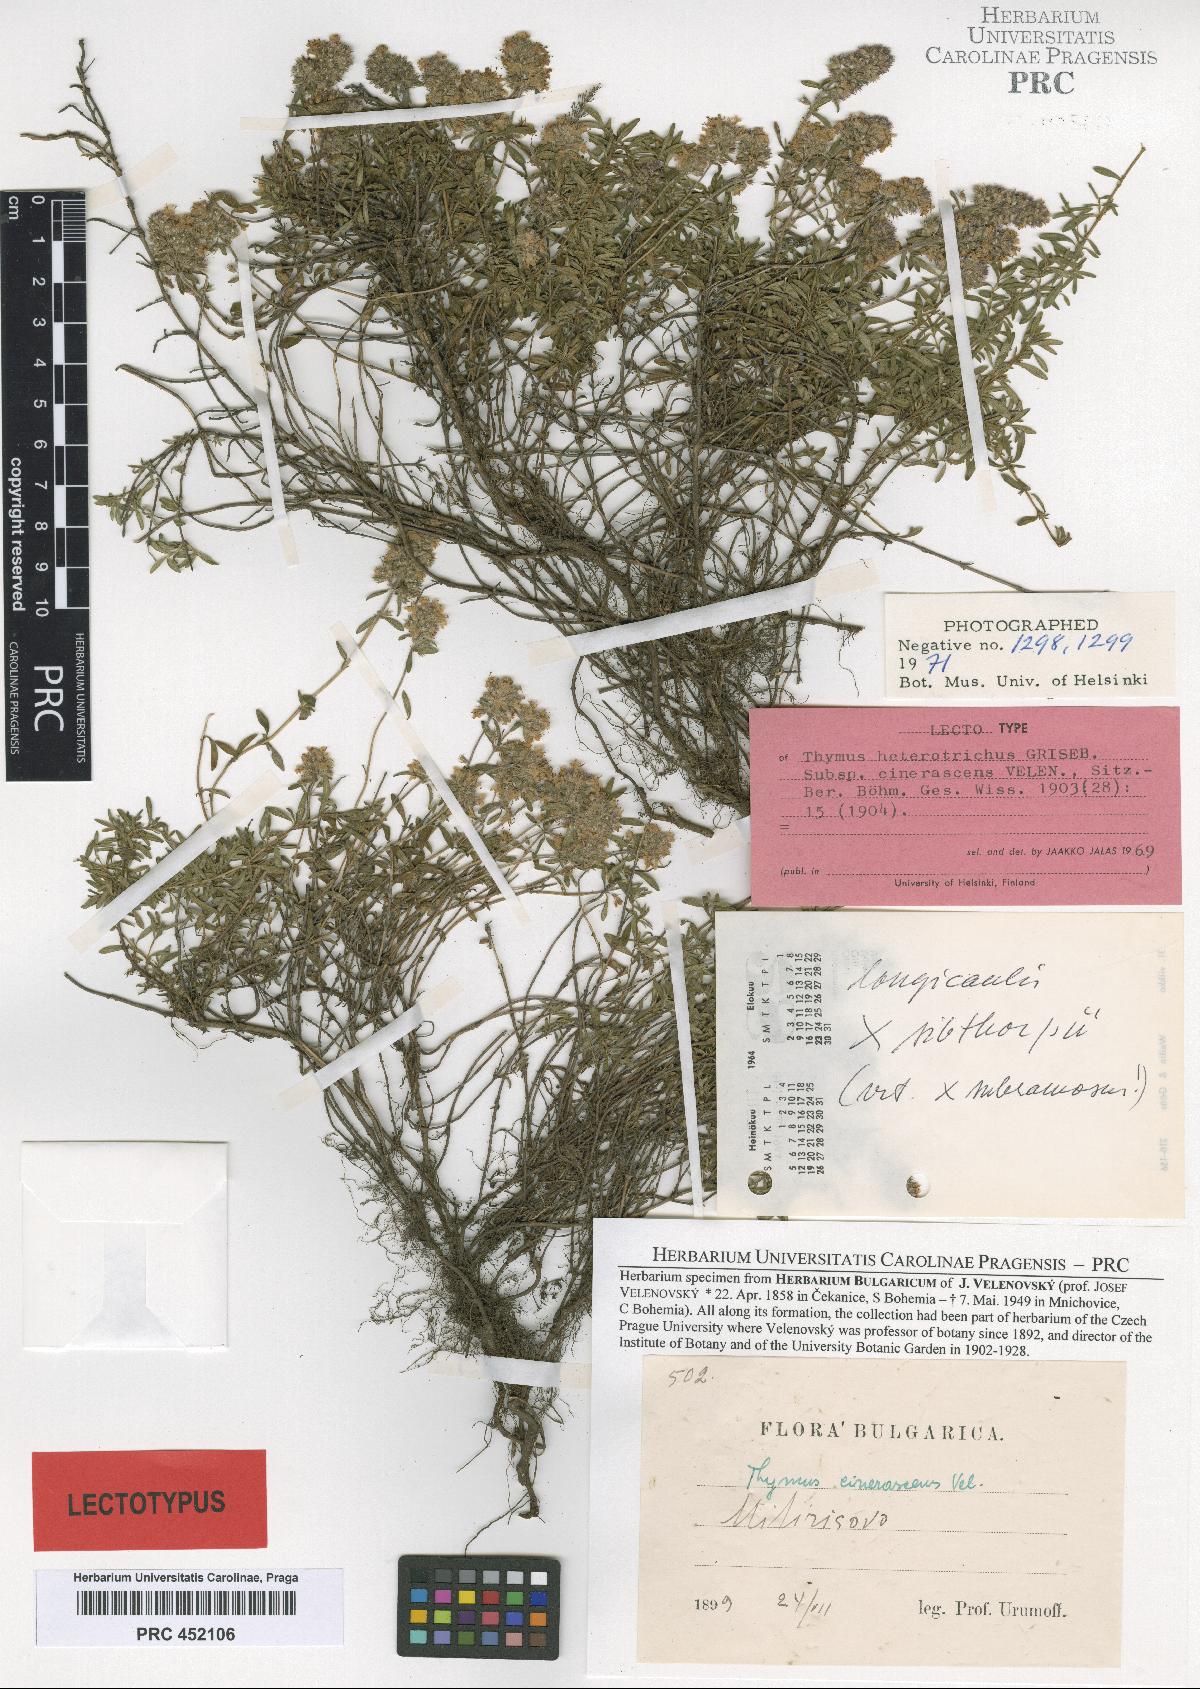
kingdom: Plantae
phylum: Tracheophyta
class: Magnoliopsida
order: Lamiales
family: Lamiaceae
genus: Thymus
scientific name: Thymus degenii
